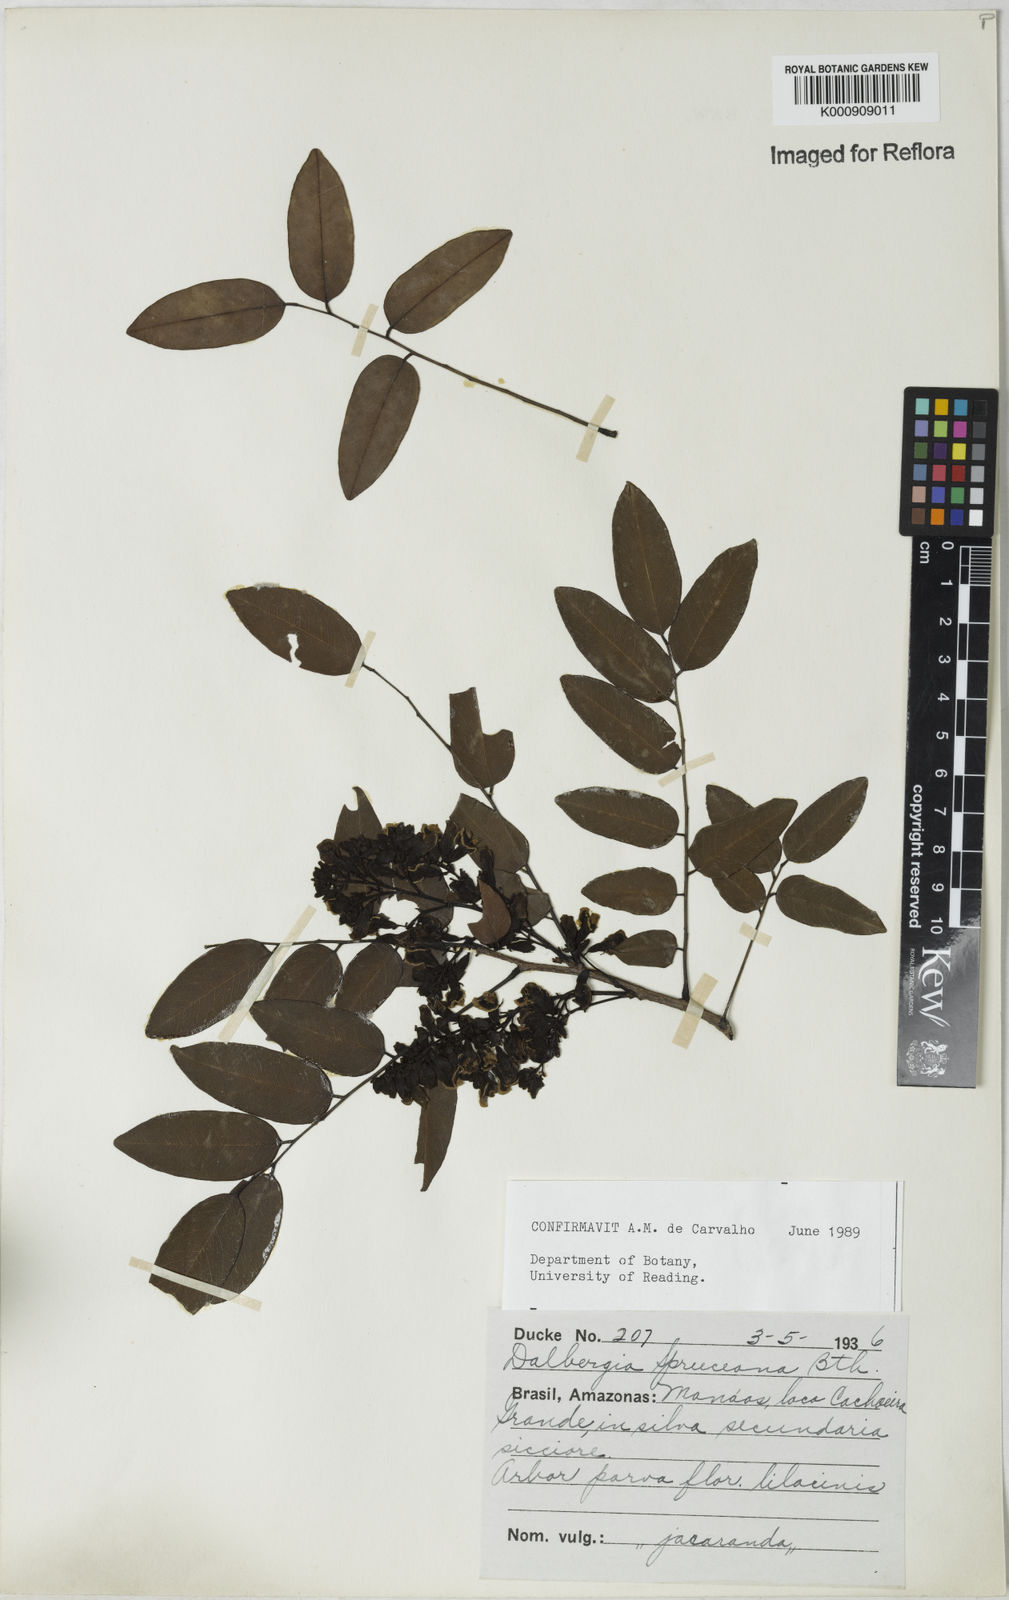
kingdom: Plantae
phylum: Tracheophyta
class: Magnoliopsida
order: Fabales
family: Fabaceae
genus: Dalbergia
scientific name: Dalbergia spruceana
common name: Amazon rosewood
